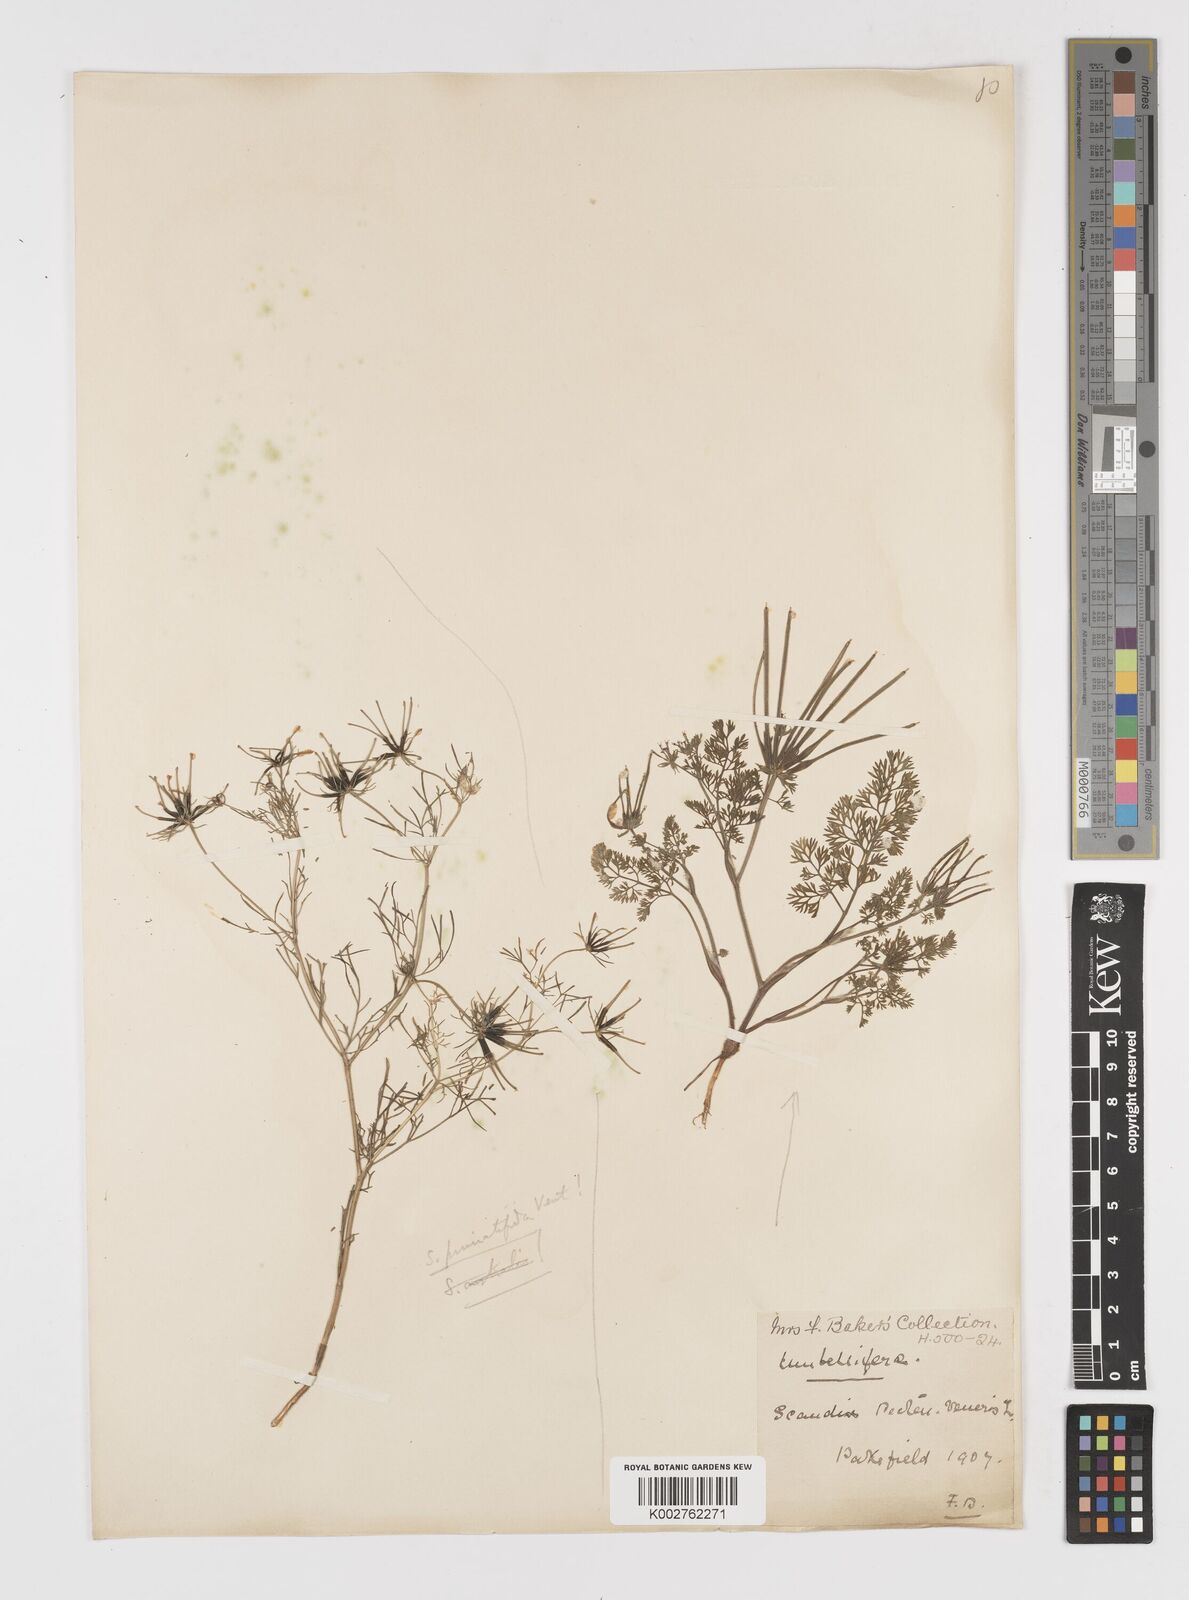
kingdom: Plantae
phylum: Tracheophyta
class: Magnoliopsida
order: Apiales
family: Apiaceae
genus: Scandix
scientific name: Scandix pecten-veneris
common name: Shepherd's-needle
